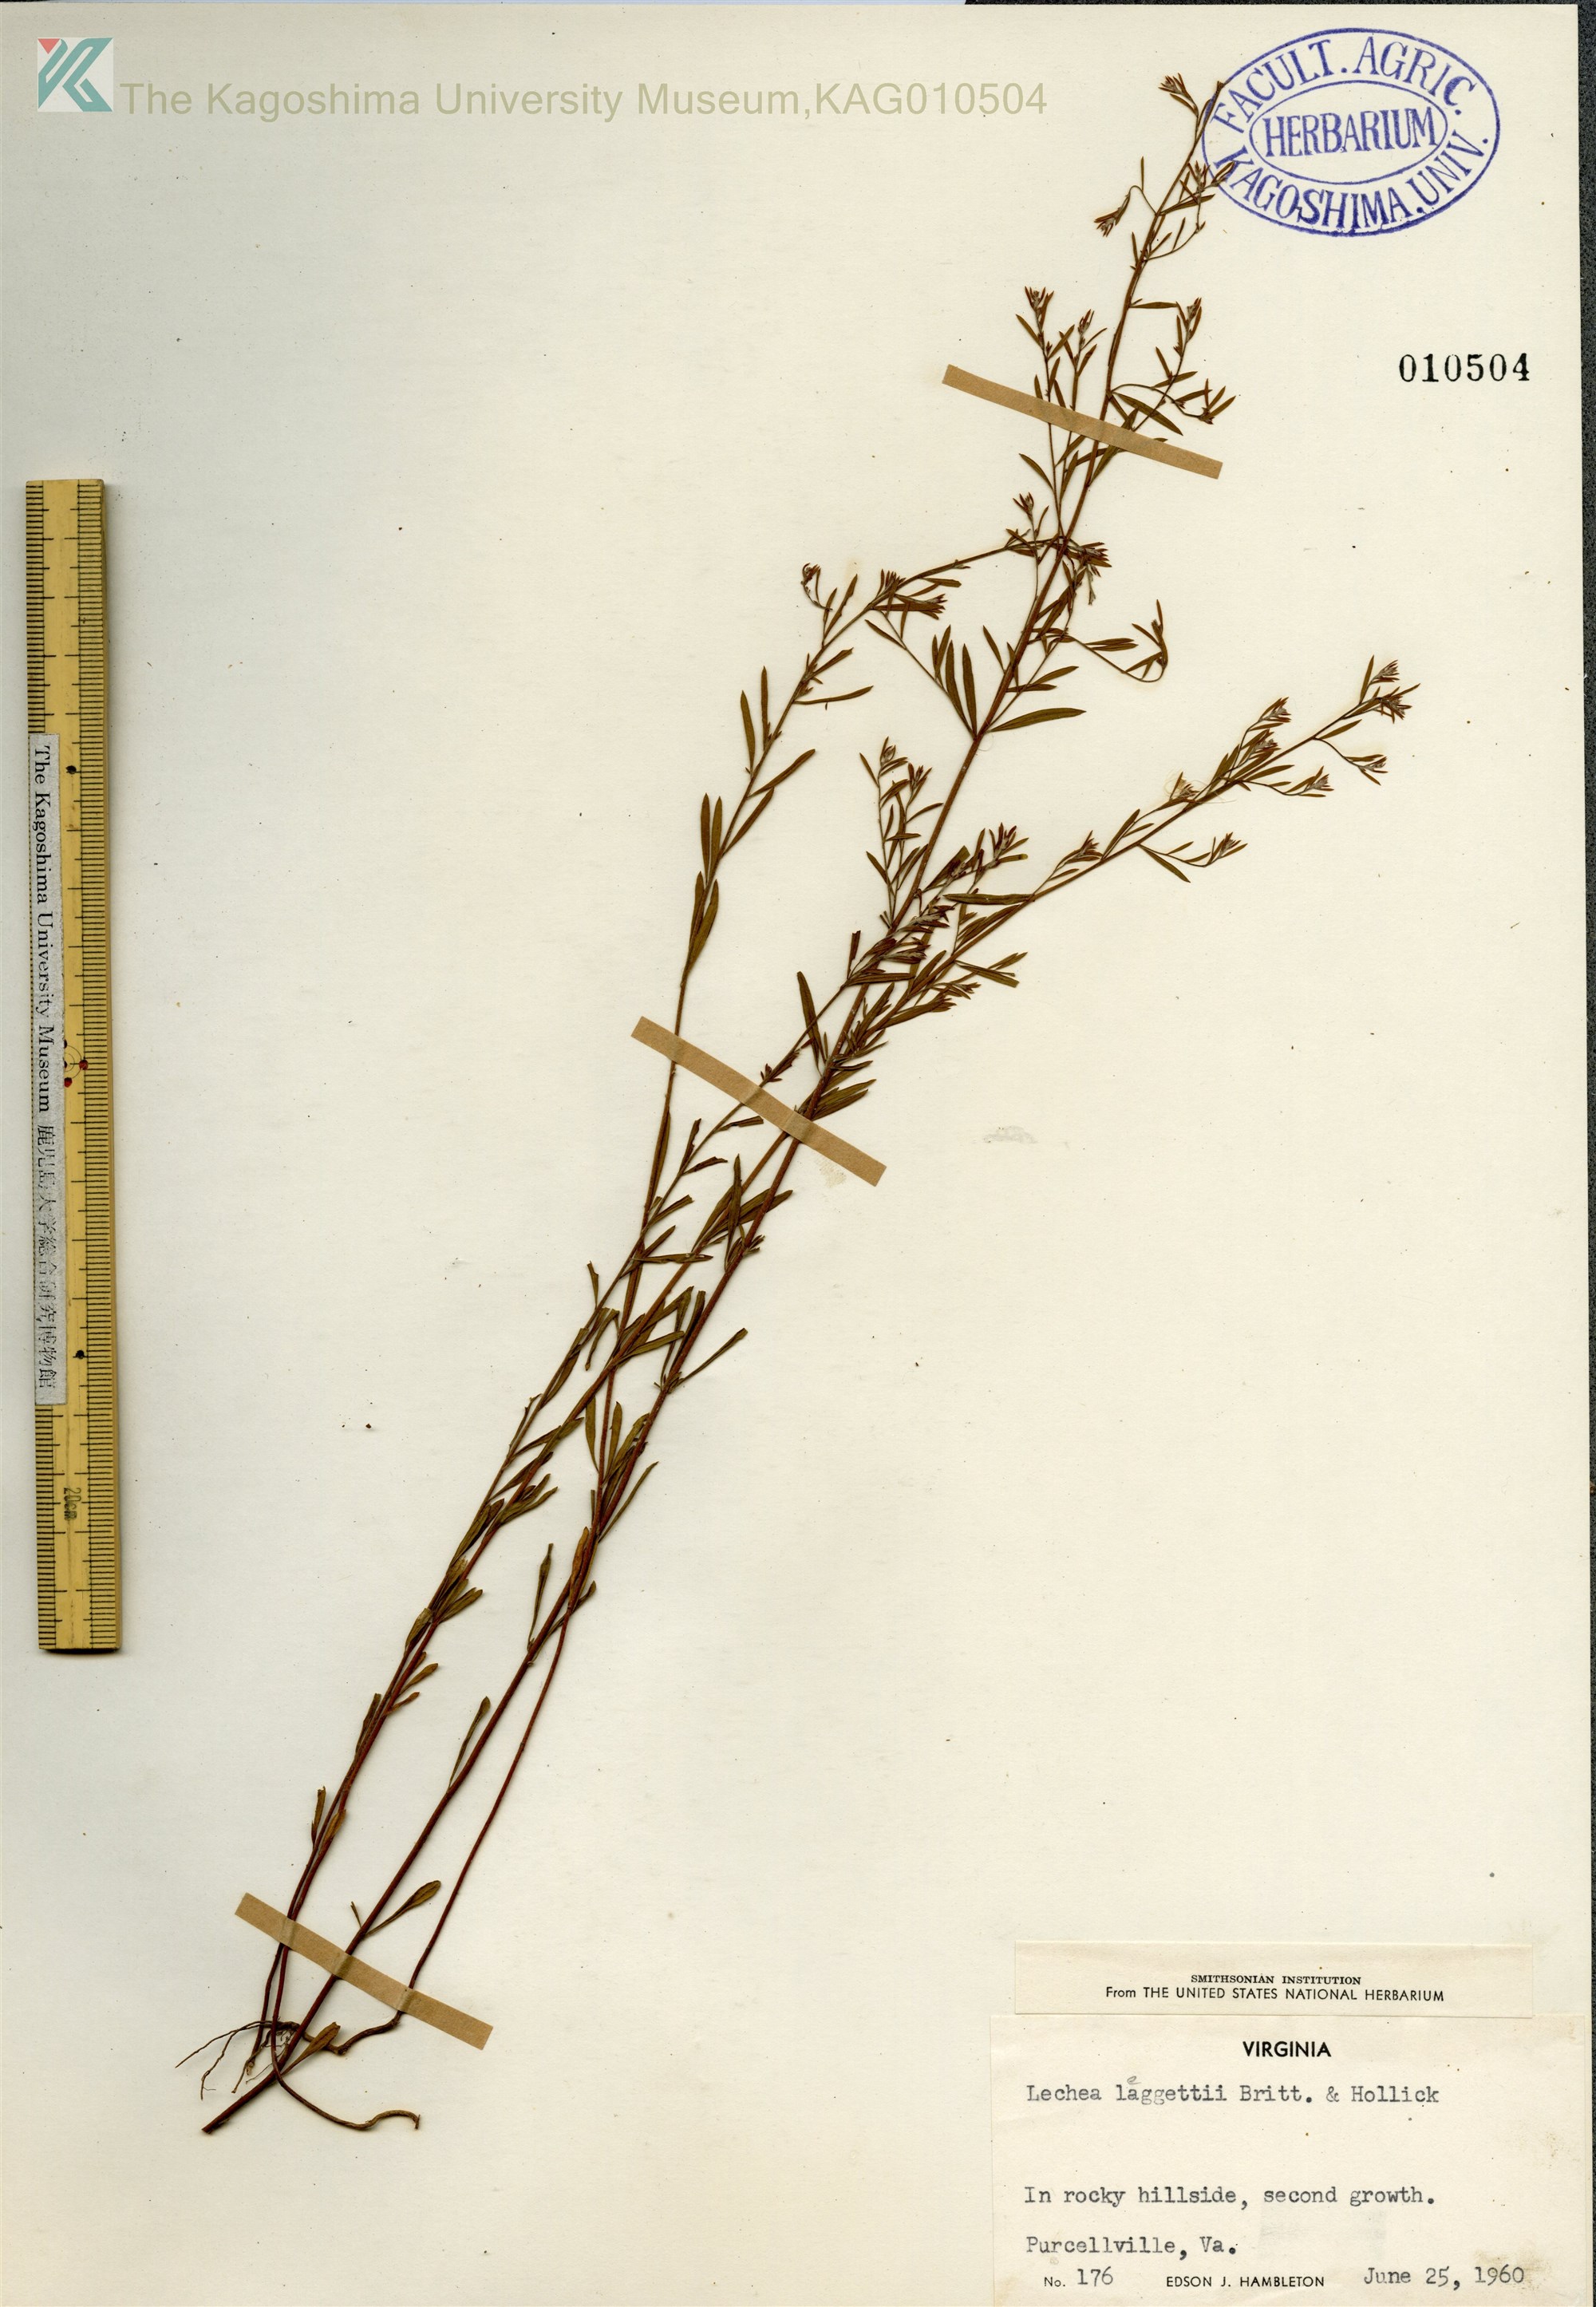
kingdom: Plantae
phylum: Tracheophyta
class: Magnoliopsida
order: Malvales
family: Cistaceae
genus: Lechea
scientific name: Lechea pulchella
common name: Leggett's pinweed
